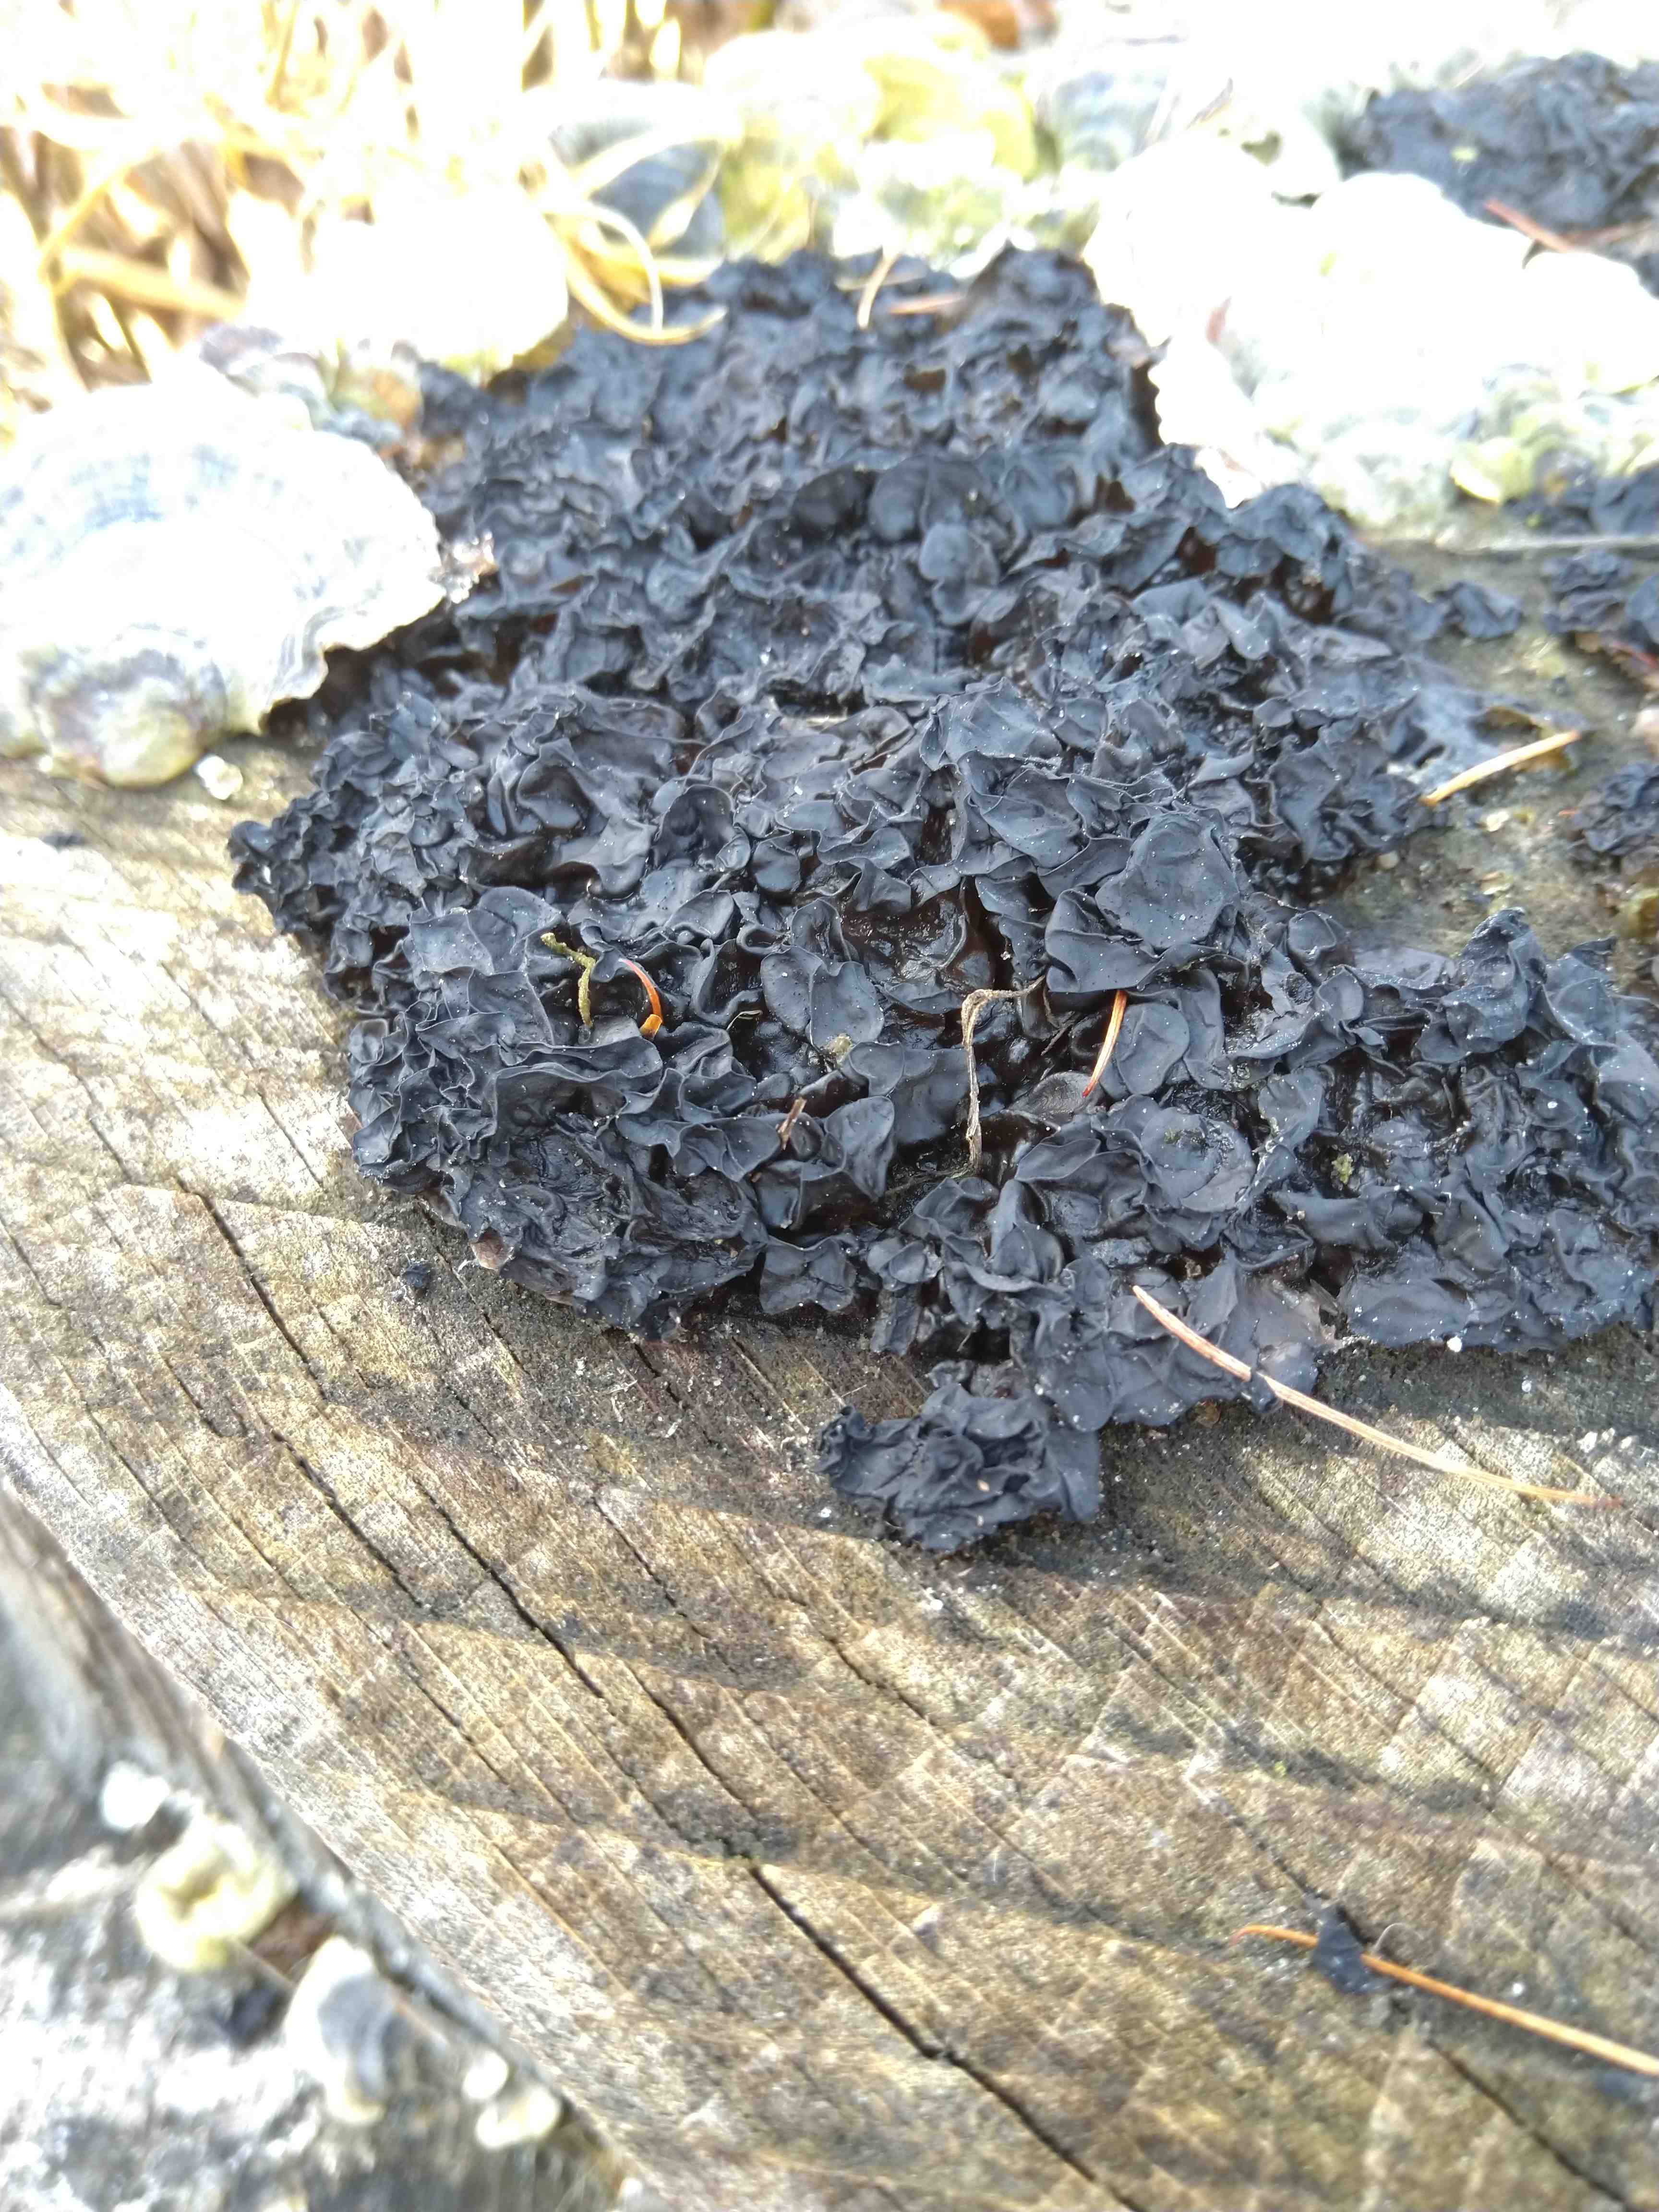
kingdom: Fungi
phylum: Basidiomycota
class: Agaricomycetes
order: Auriculariales
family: Auriculariaceae
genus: Exidia
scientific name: Exidia nigricans
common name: almindelig bævretop
